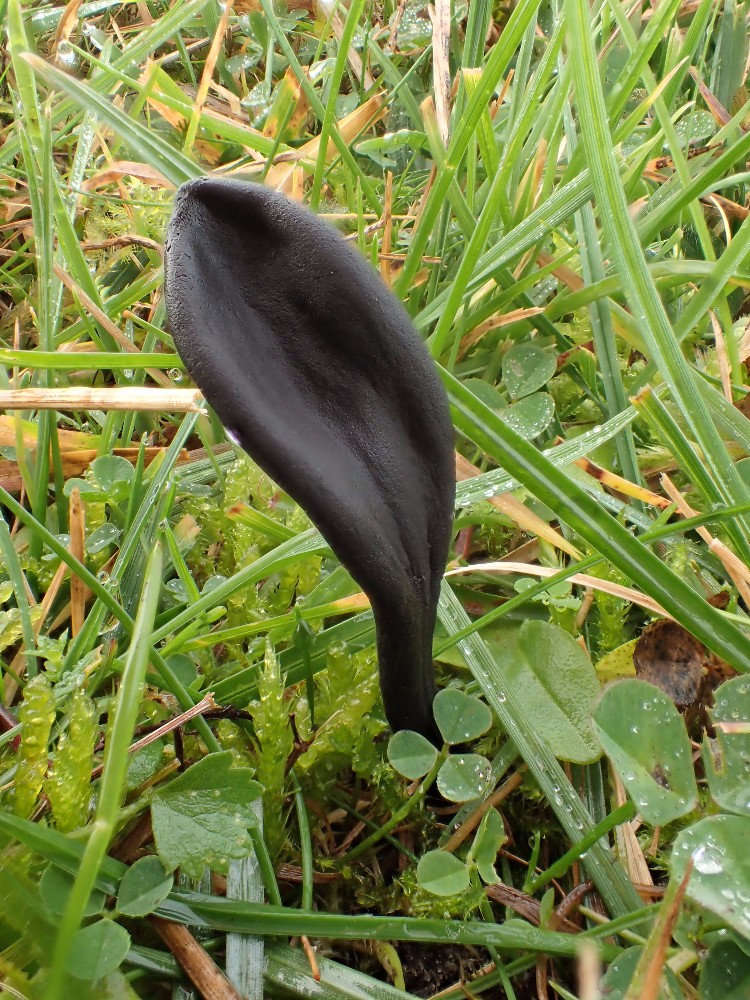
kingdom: Fungi
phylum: Ascomycota
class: Geoglossomycetes
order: Geoglossales
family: Geoglossaceae
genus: Geoglossum
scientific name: Geoglossum cookeianum
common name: bred jordtunge
